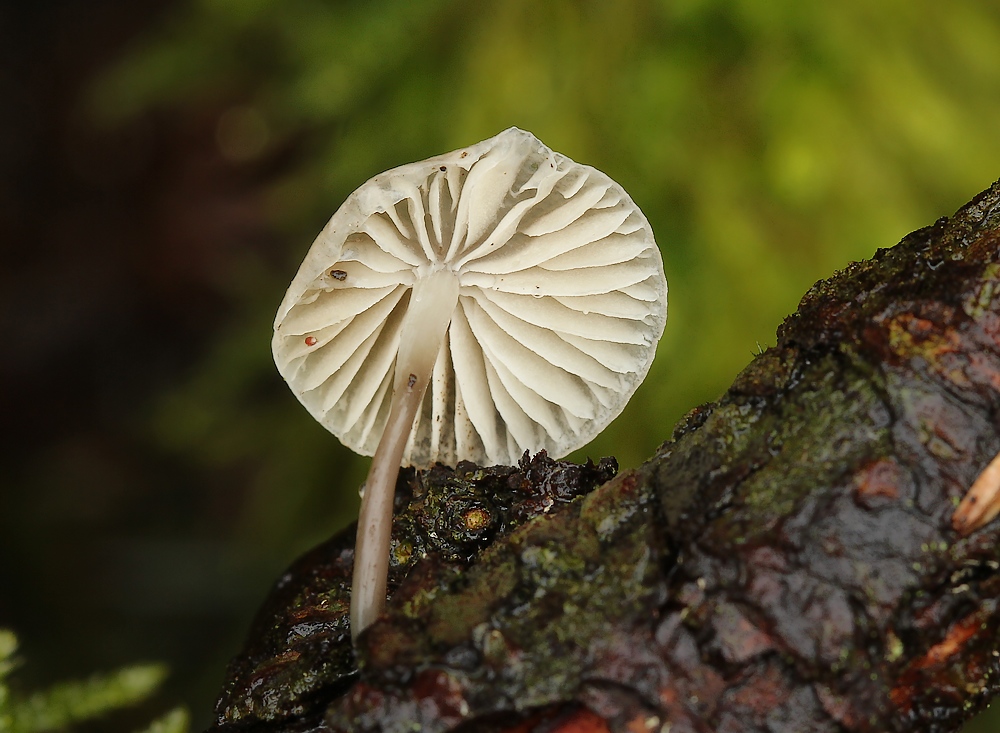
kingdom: Fungi
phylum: Basidiomycota
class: Agaricomycetes
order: Agaricales
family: Mycenaceae
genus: Mycena
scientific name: Mycena xantholeuca
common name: cremehvid huesvamp
